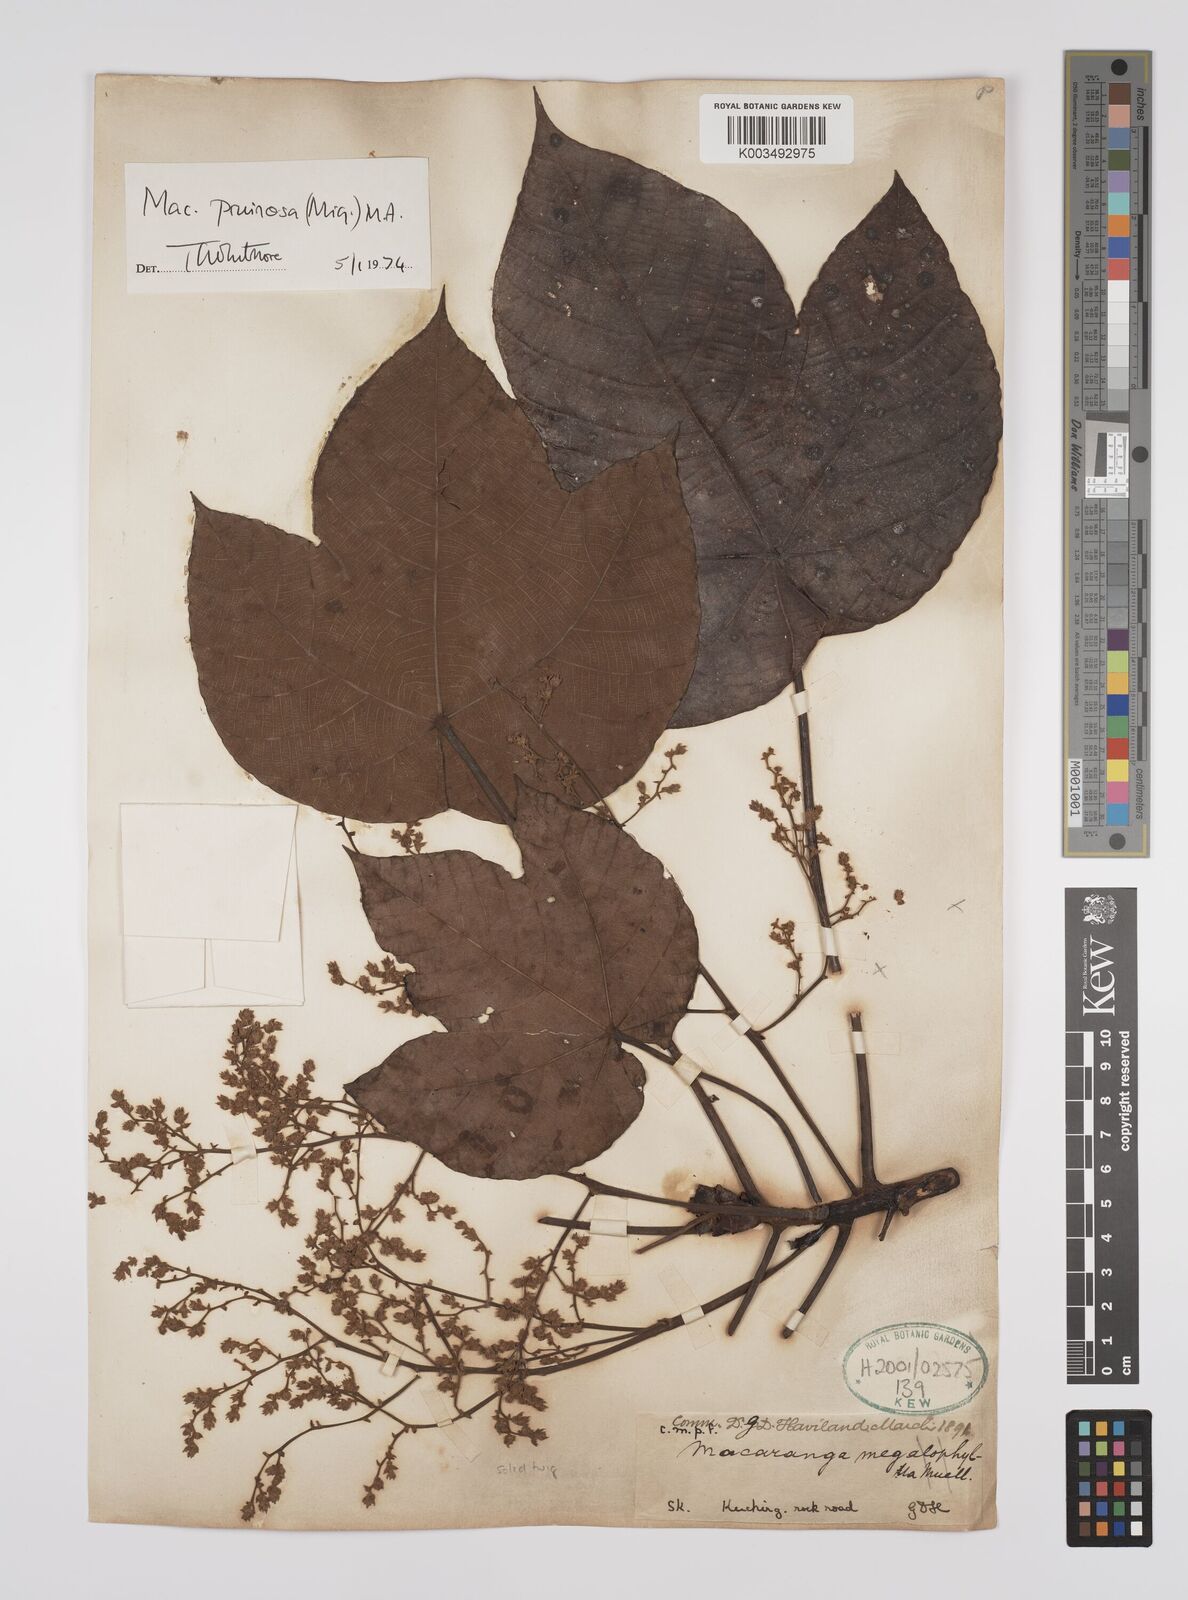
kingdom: Plantae
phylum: Tracheophyta
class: Magnoliopsida
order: Malpighiales
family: Euphorbiaceae
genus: Macaranga
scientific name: Macaranga pruinosa
